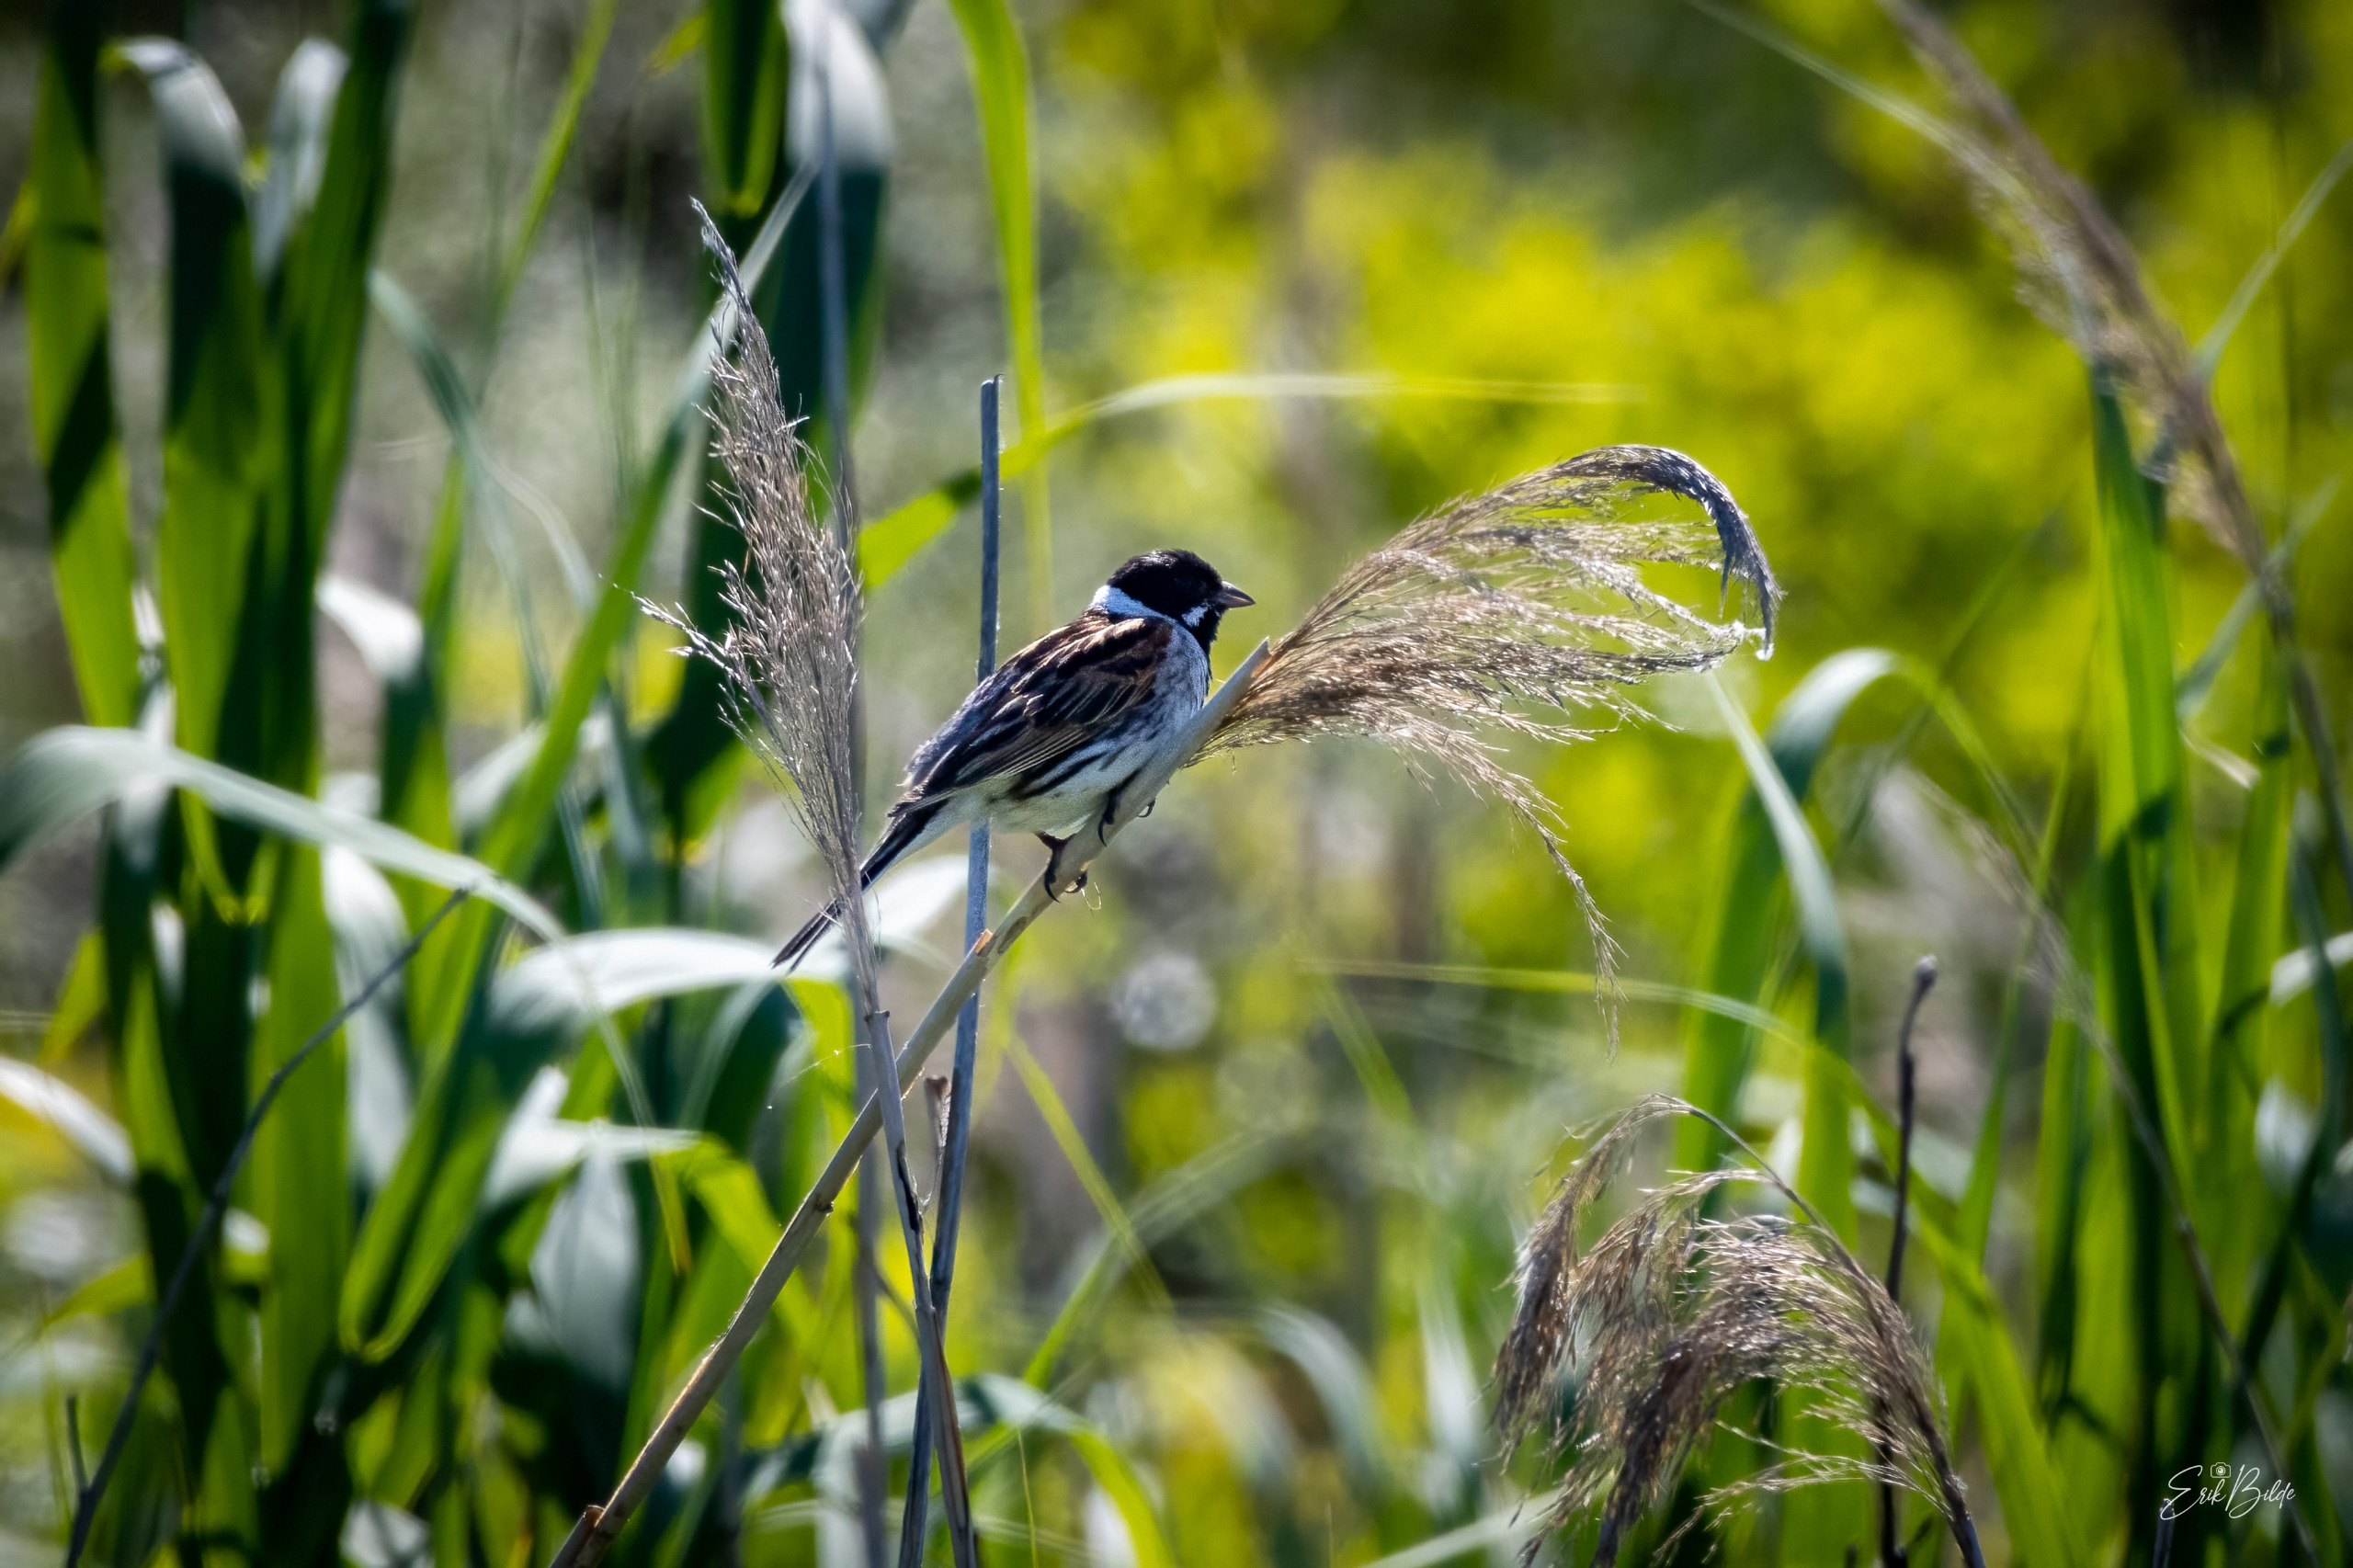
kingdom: Animalia
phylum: Chordata
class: Aves
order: Passeriformes
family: Emberizidae
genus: Emberiza
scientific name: Emberiza schoeniclus
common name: Rørspurv
